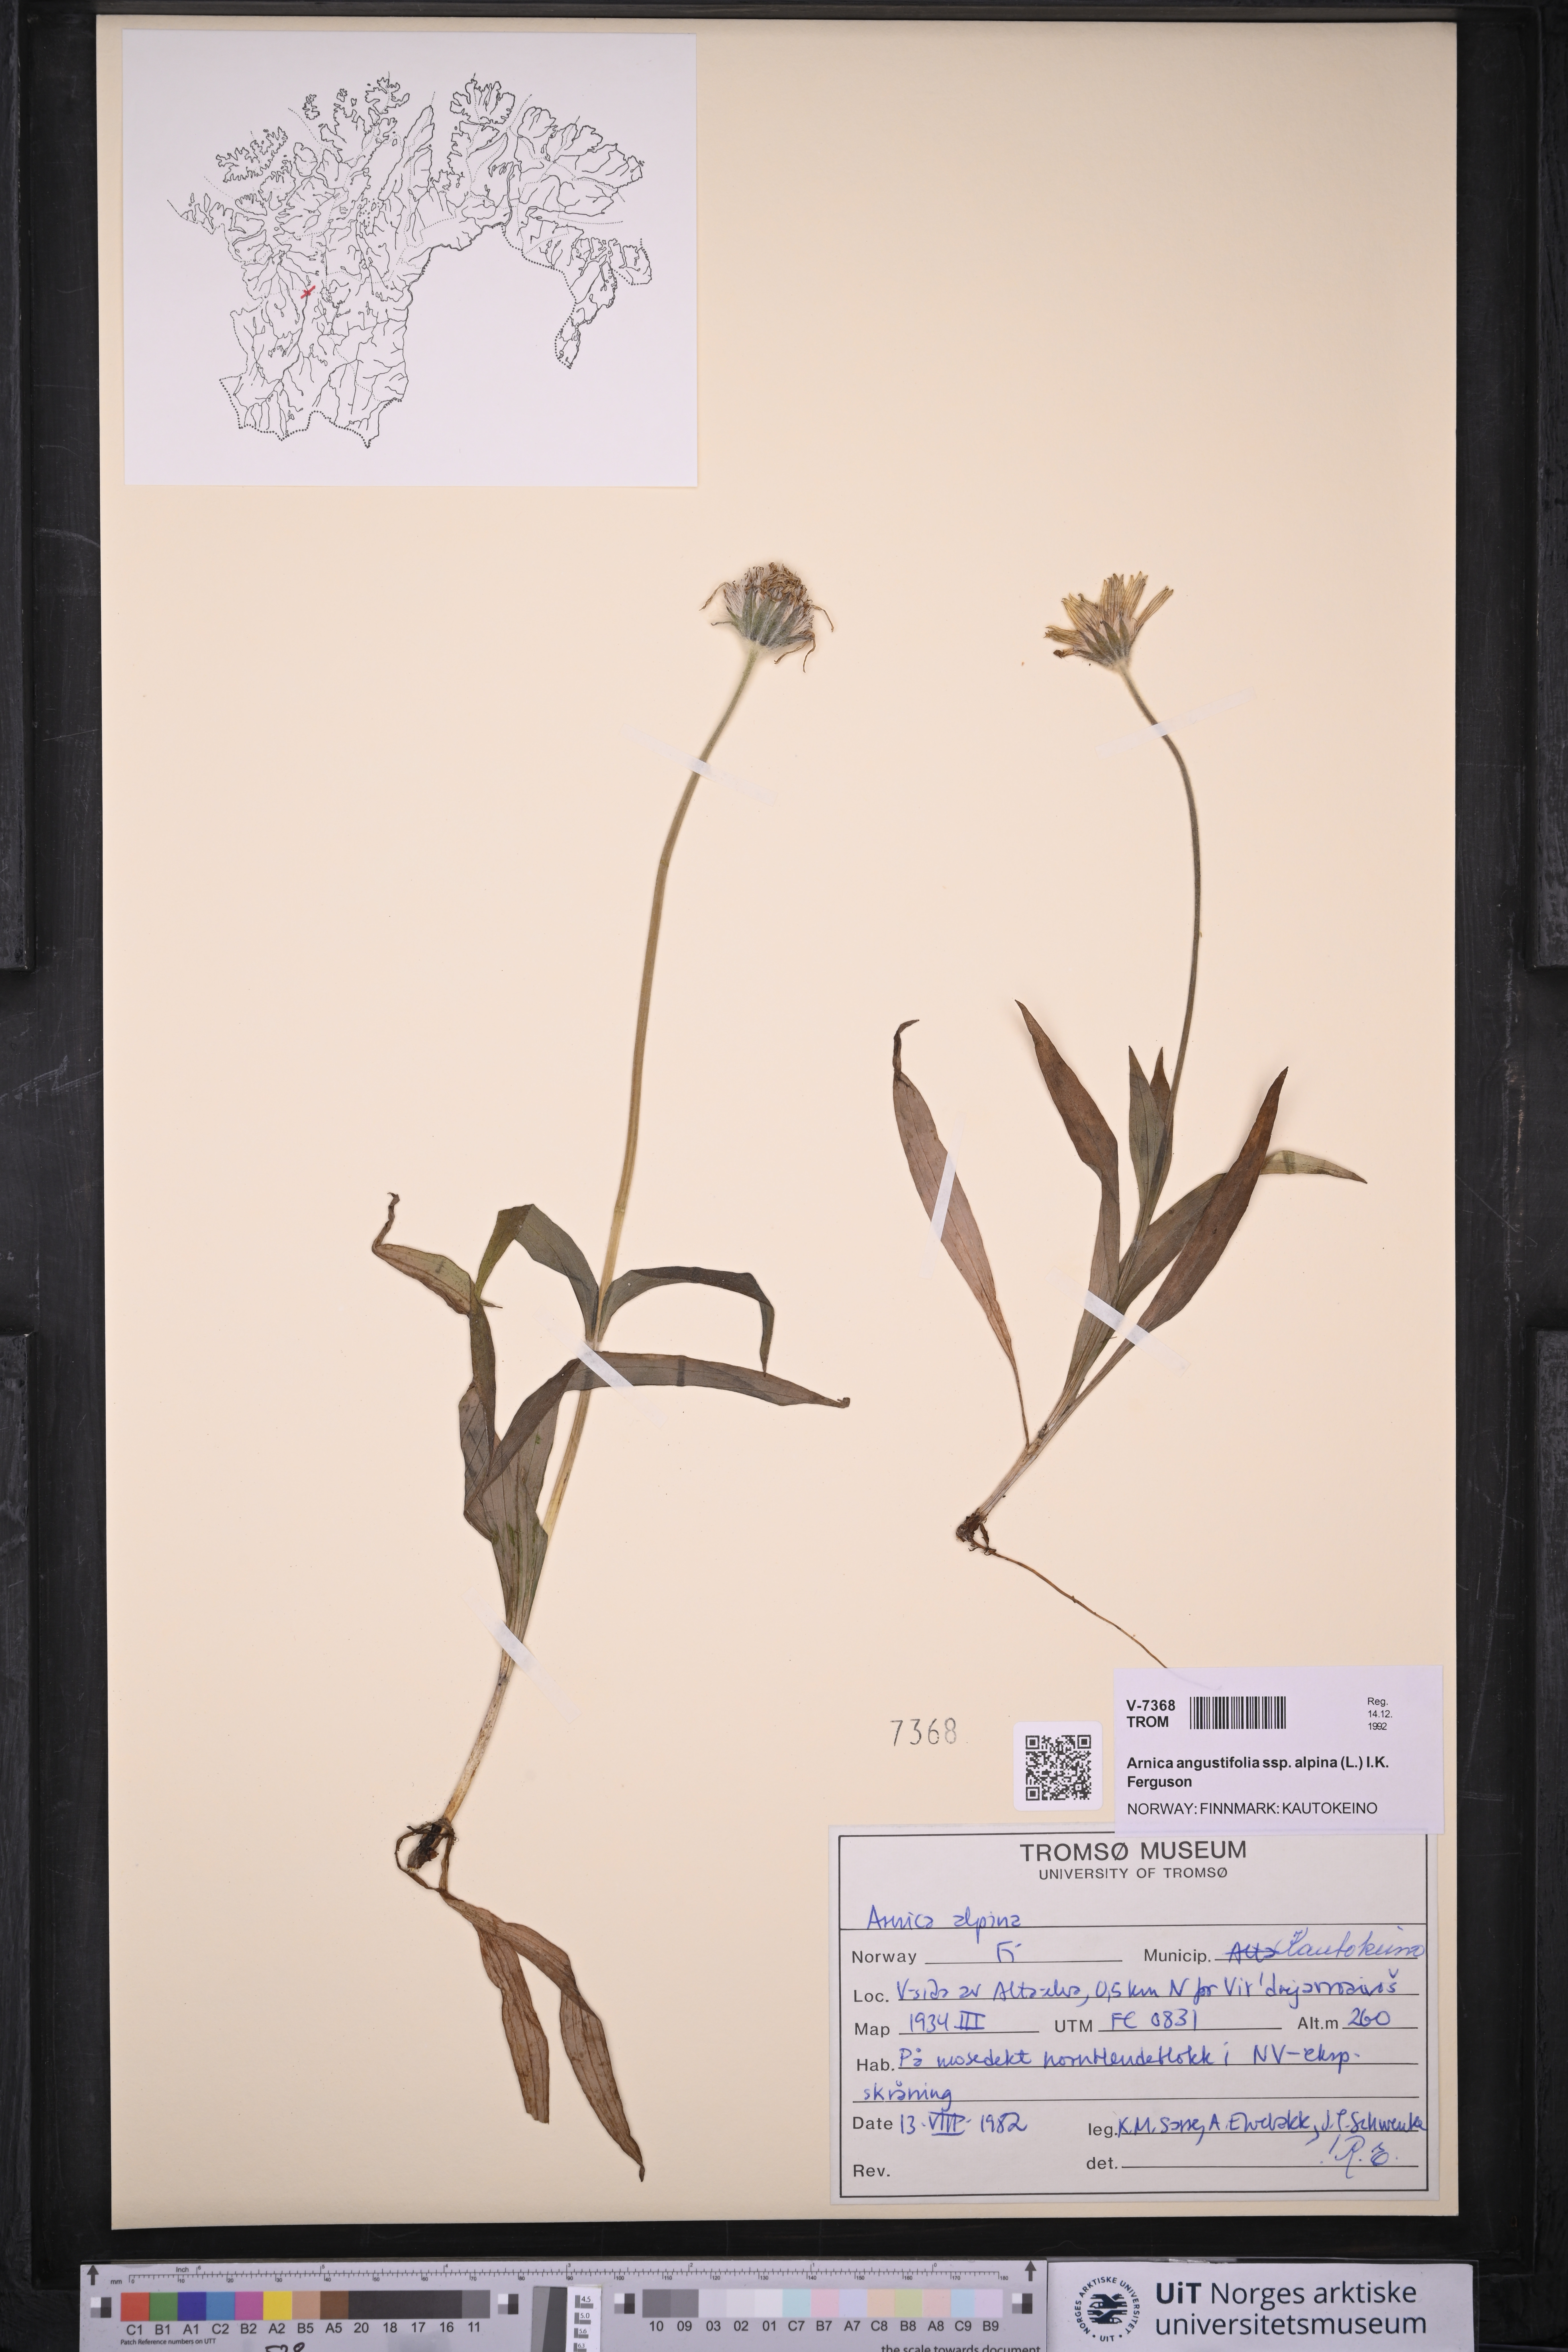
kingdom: Plantae
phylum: Tracheophyta
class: Magnoliopsida
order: Asterales
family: Asteraceae
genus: Arnica
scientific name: Arnica angustifolia
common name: Arctic arnica
